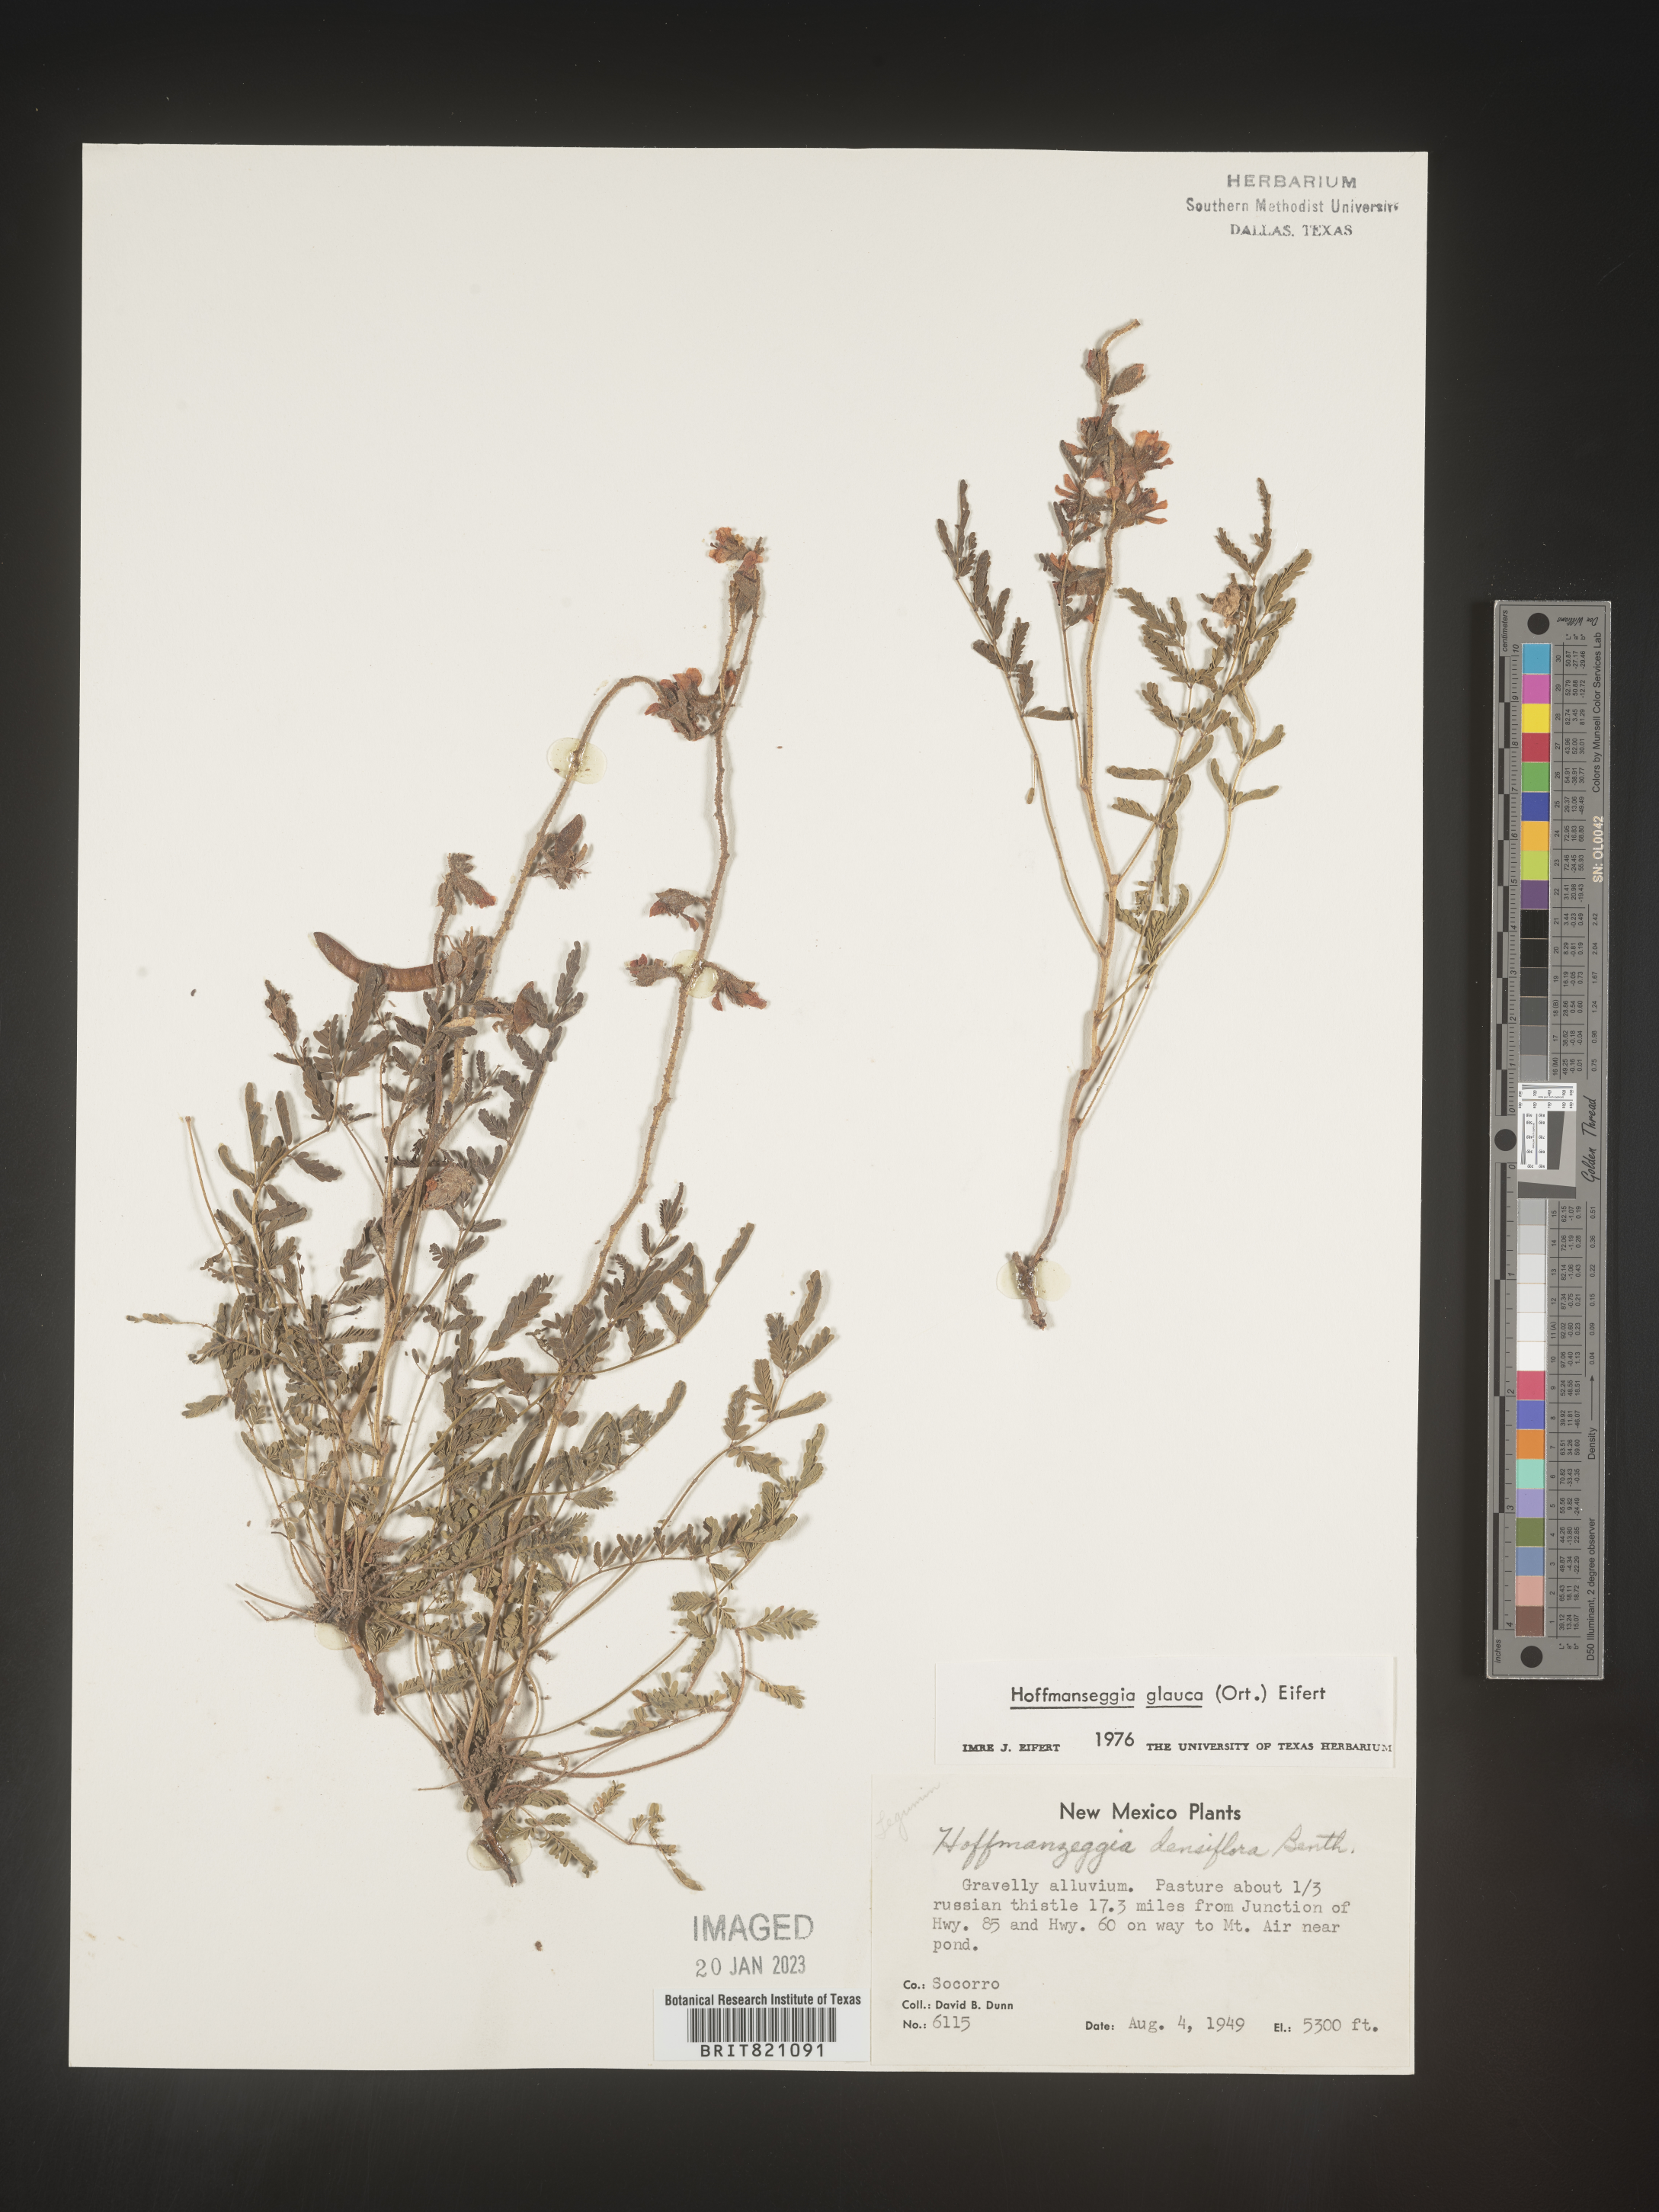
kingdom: Plantae
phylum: Tracheophyta
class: Magnoliopsida
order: Fabales
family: Fabaceae
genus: Hoffmannseggia
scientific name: Hoffmannseggia
